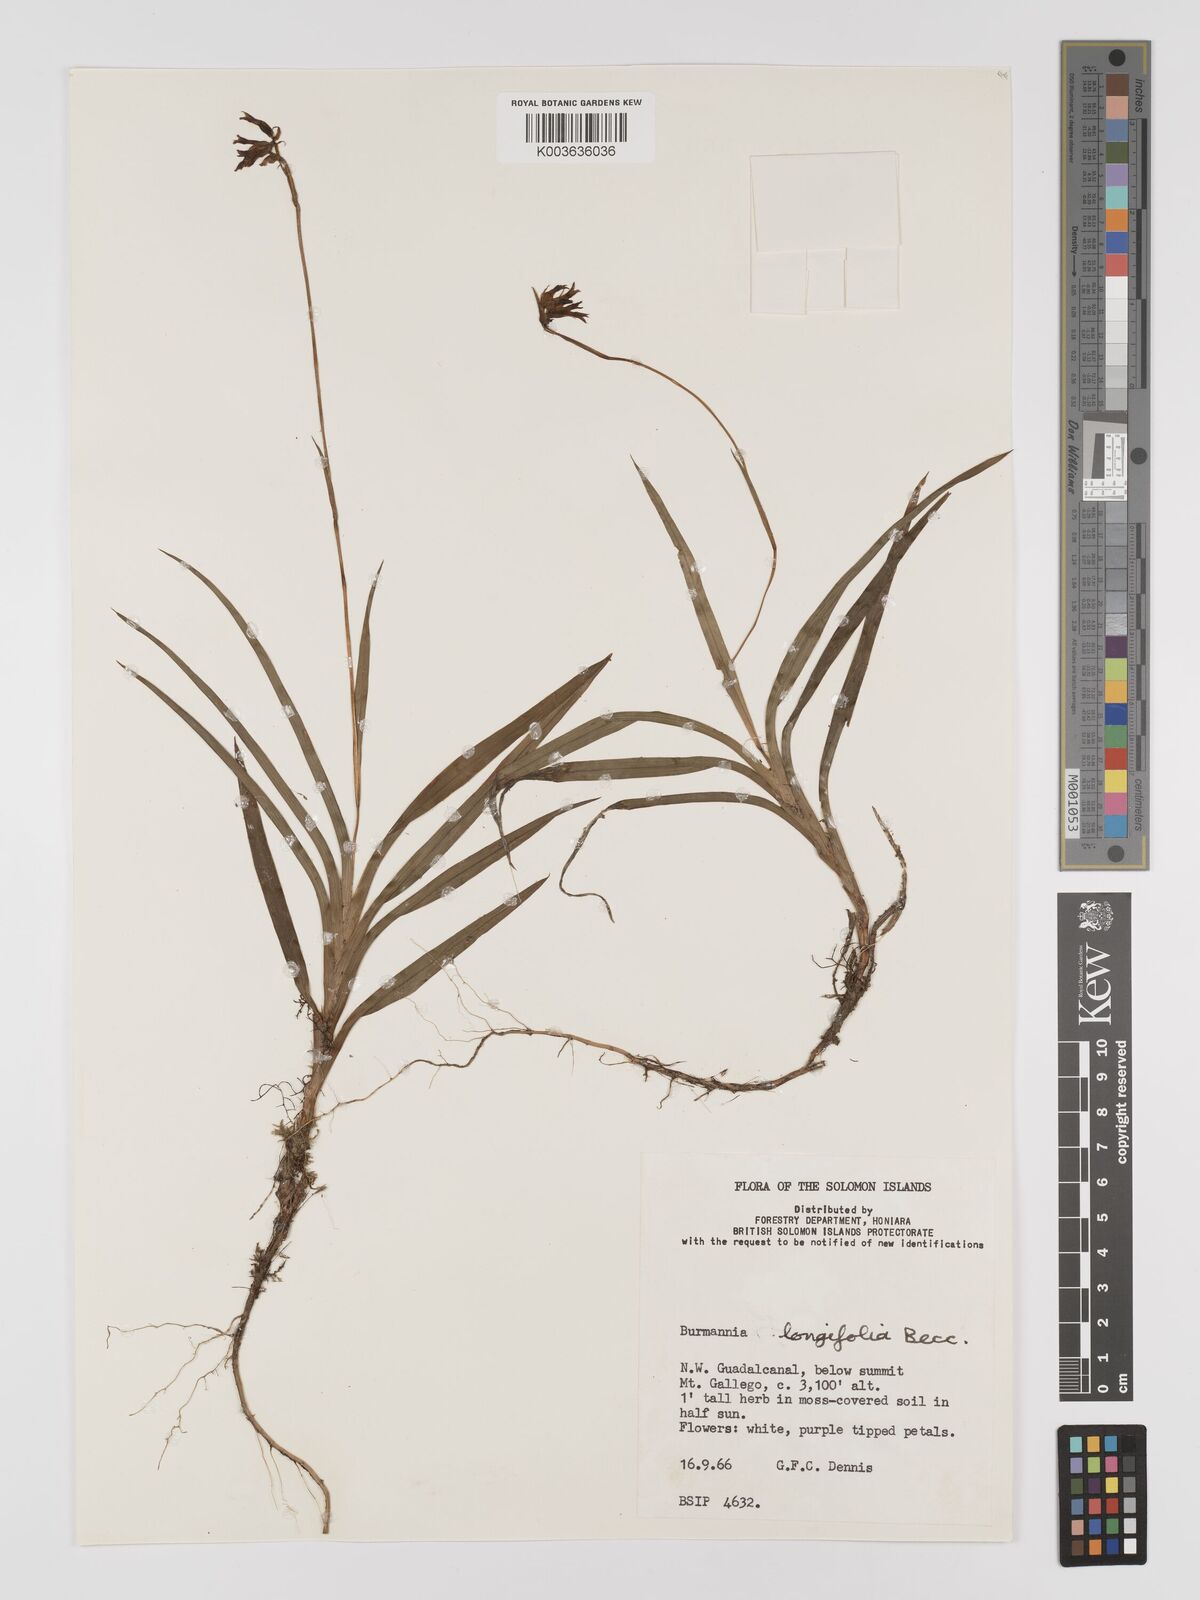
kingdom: Plantae
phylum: Tracheophyta
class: Liliopsida
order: Dioscoreales
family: Burmanniaceae
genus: Burmannia
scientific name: Burmannia longifolia
